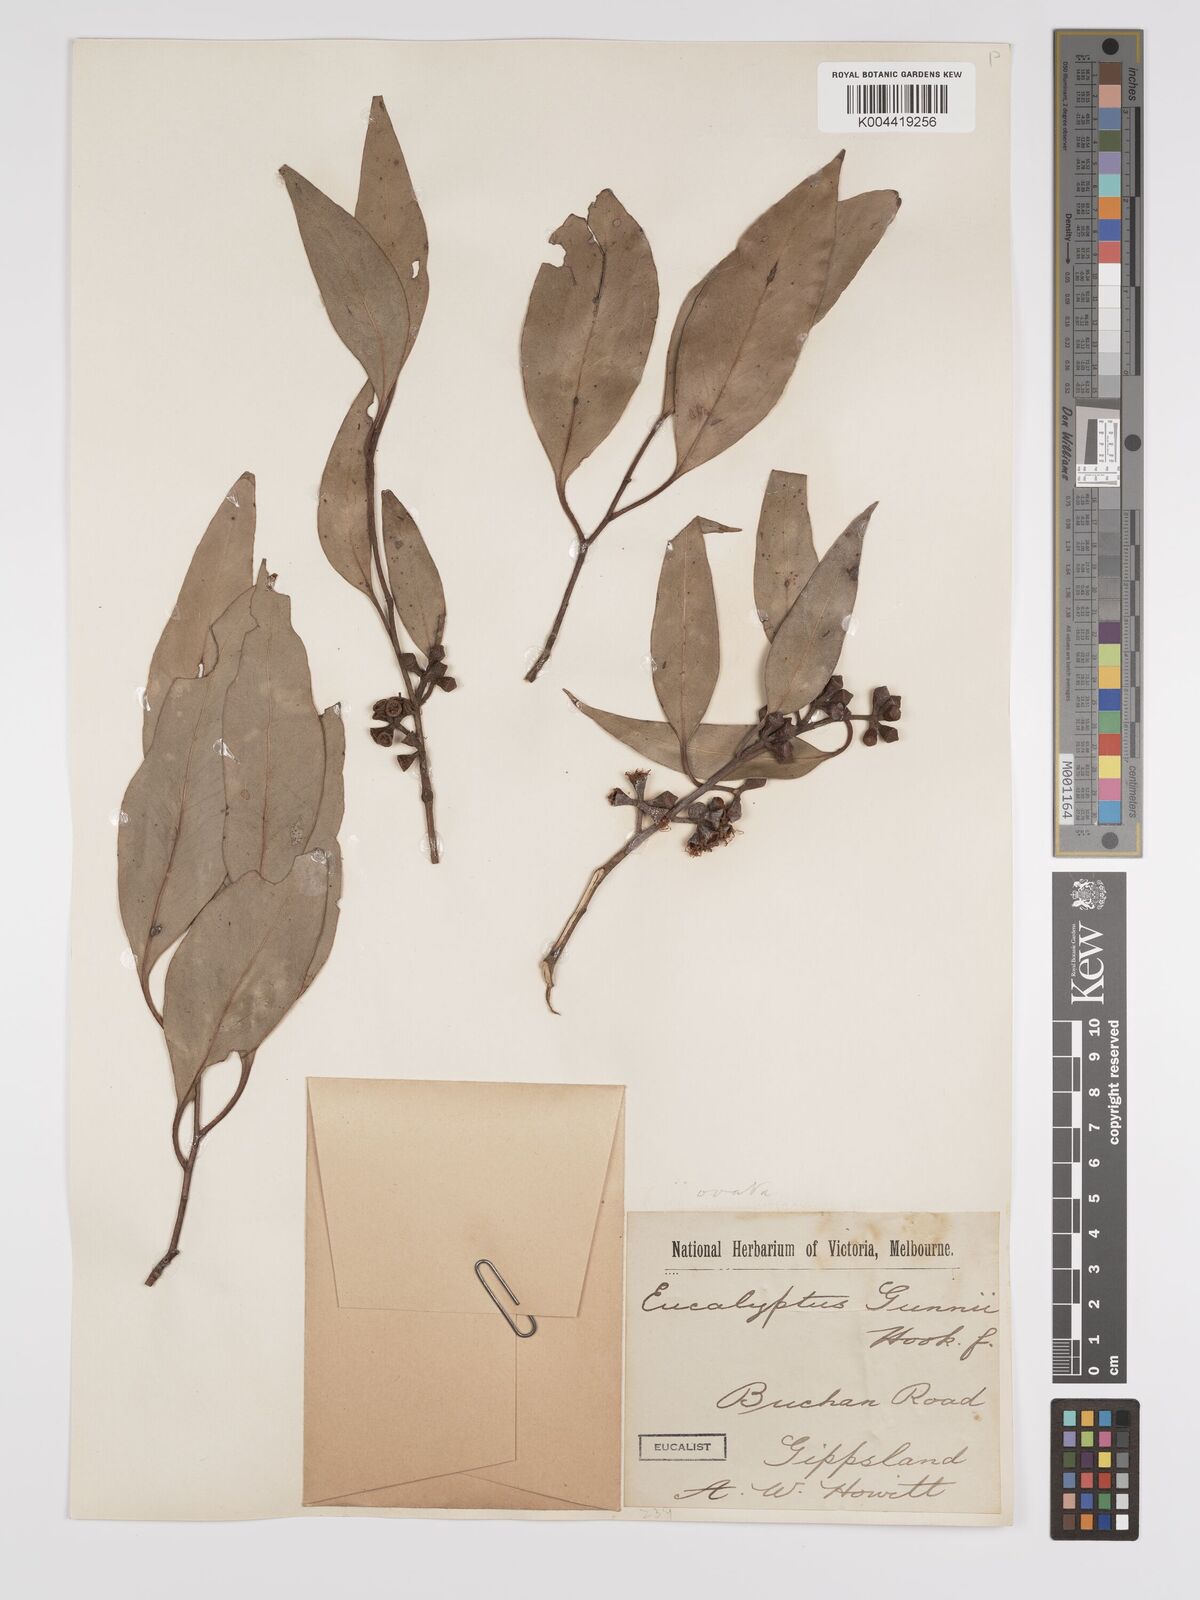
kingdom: Plantae
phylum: Tracheophyta
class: Magnoliopsida
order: Myrtales
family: Myrtaceae
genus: Eucalyptus
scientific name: Eucalyptus ovata
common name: Black-gum
